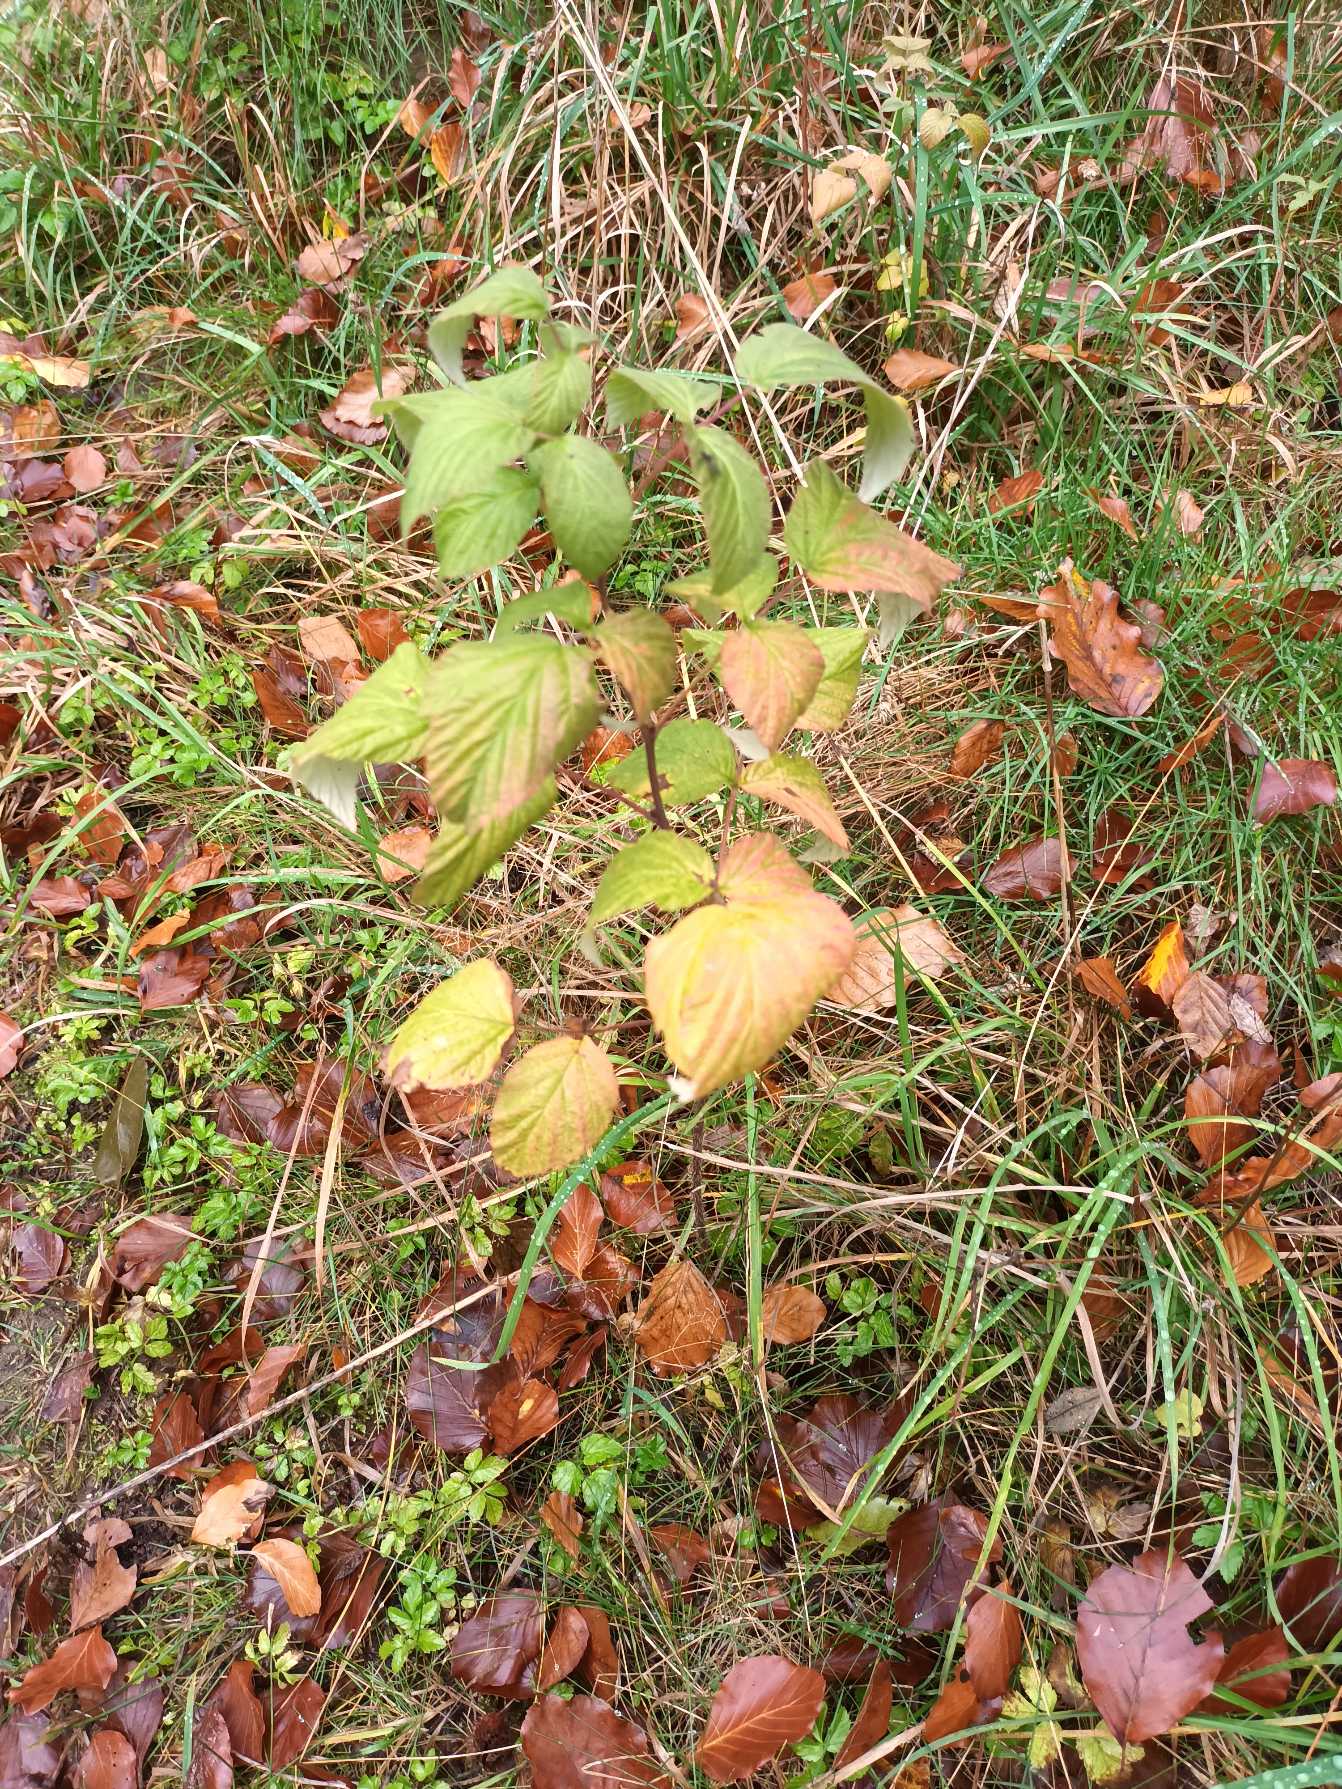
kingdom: Plantae
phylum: Tracheophyta
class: Magnoliopsida
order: Rosales
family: Rosaceae
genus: Rubus
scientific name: Rubus idaeus
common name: Hindbær
